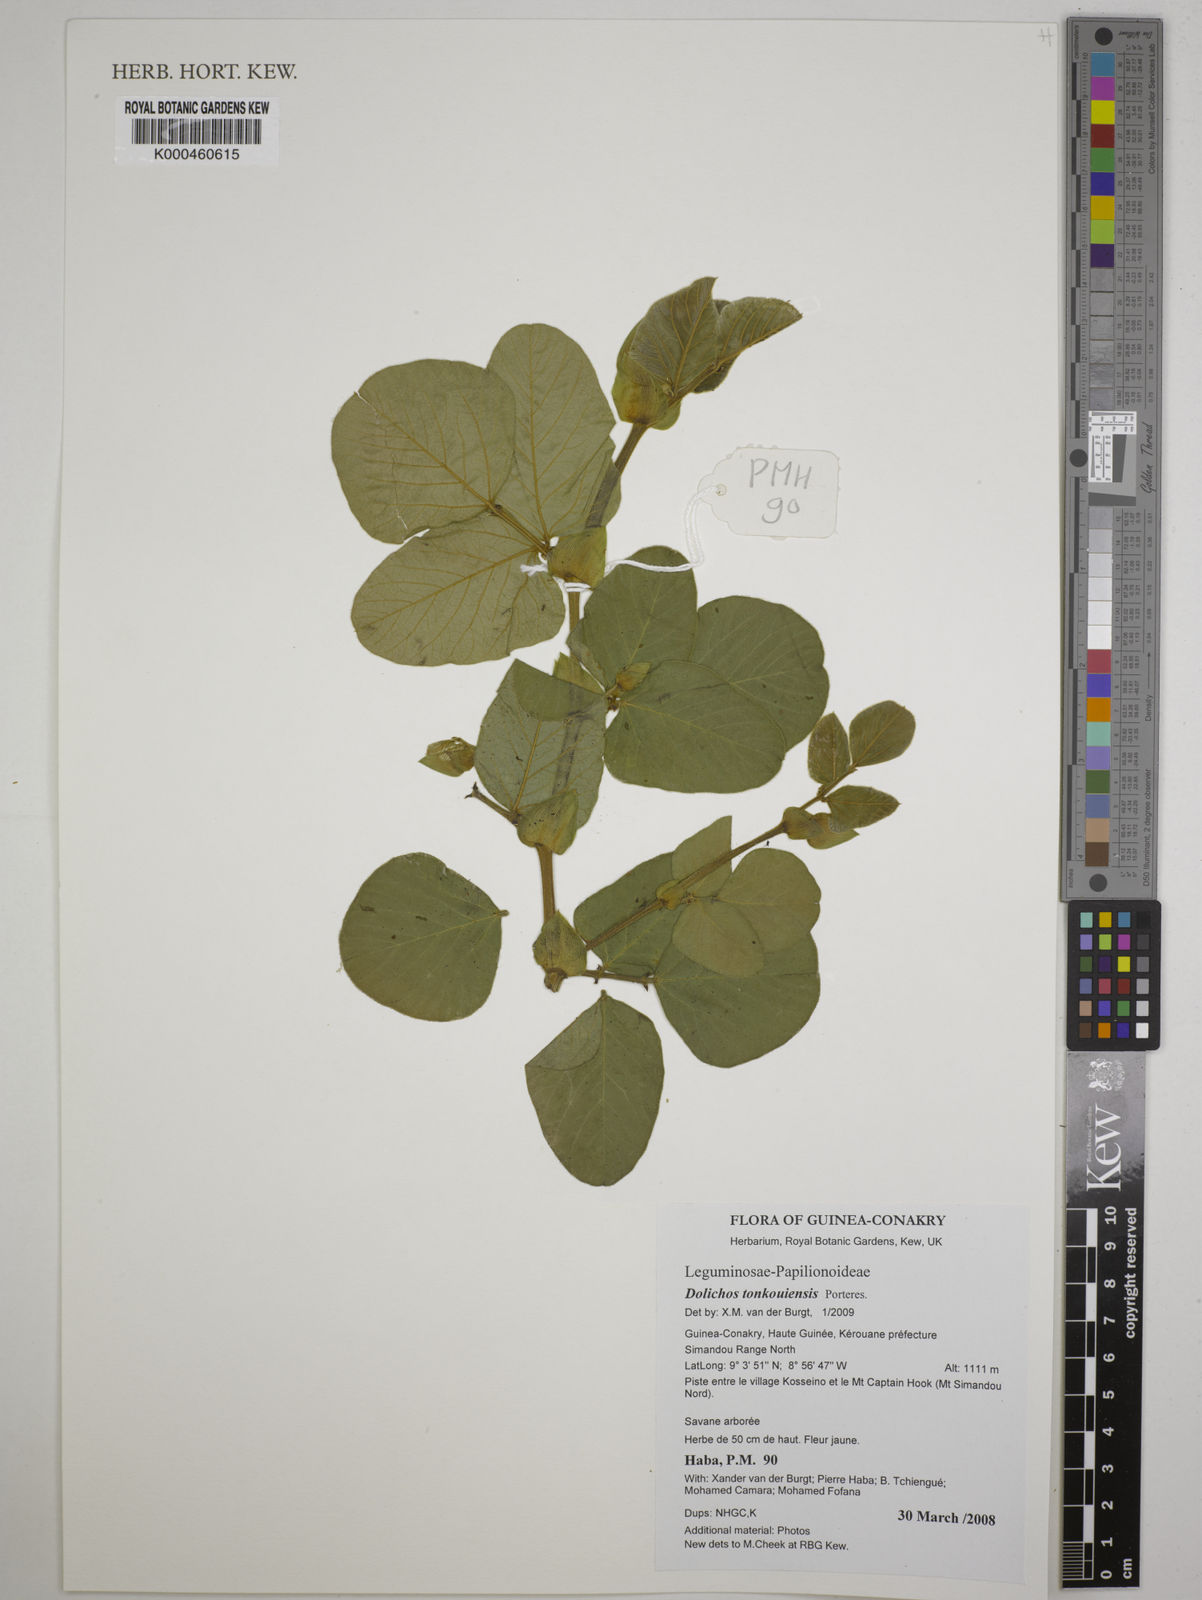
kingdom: Plantae
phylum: Tracheophyta
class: Magnoliopsida
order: Fabales
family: Fabaceae
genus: Dolichos
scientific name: Dolichos tonkouiensis
